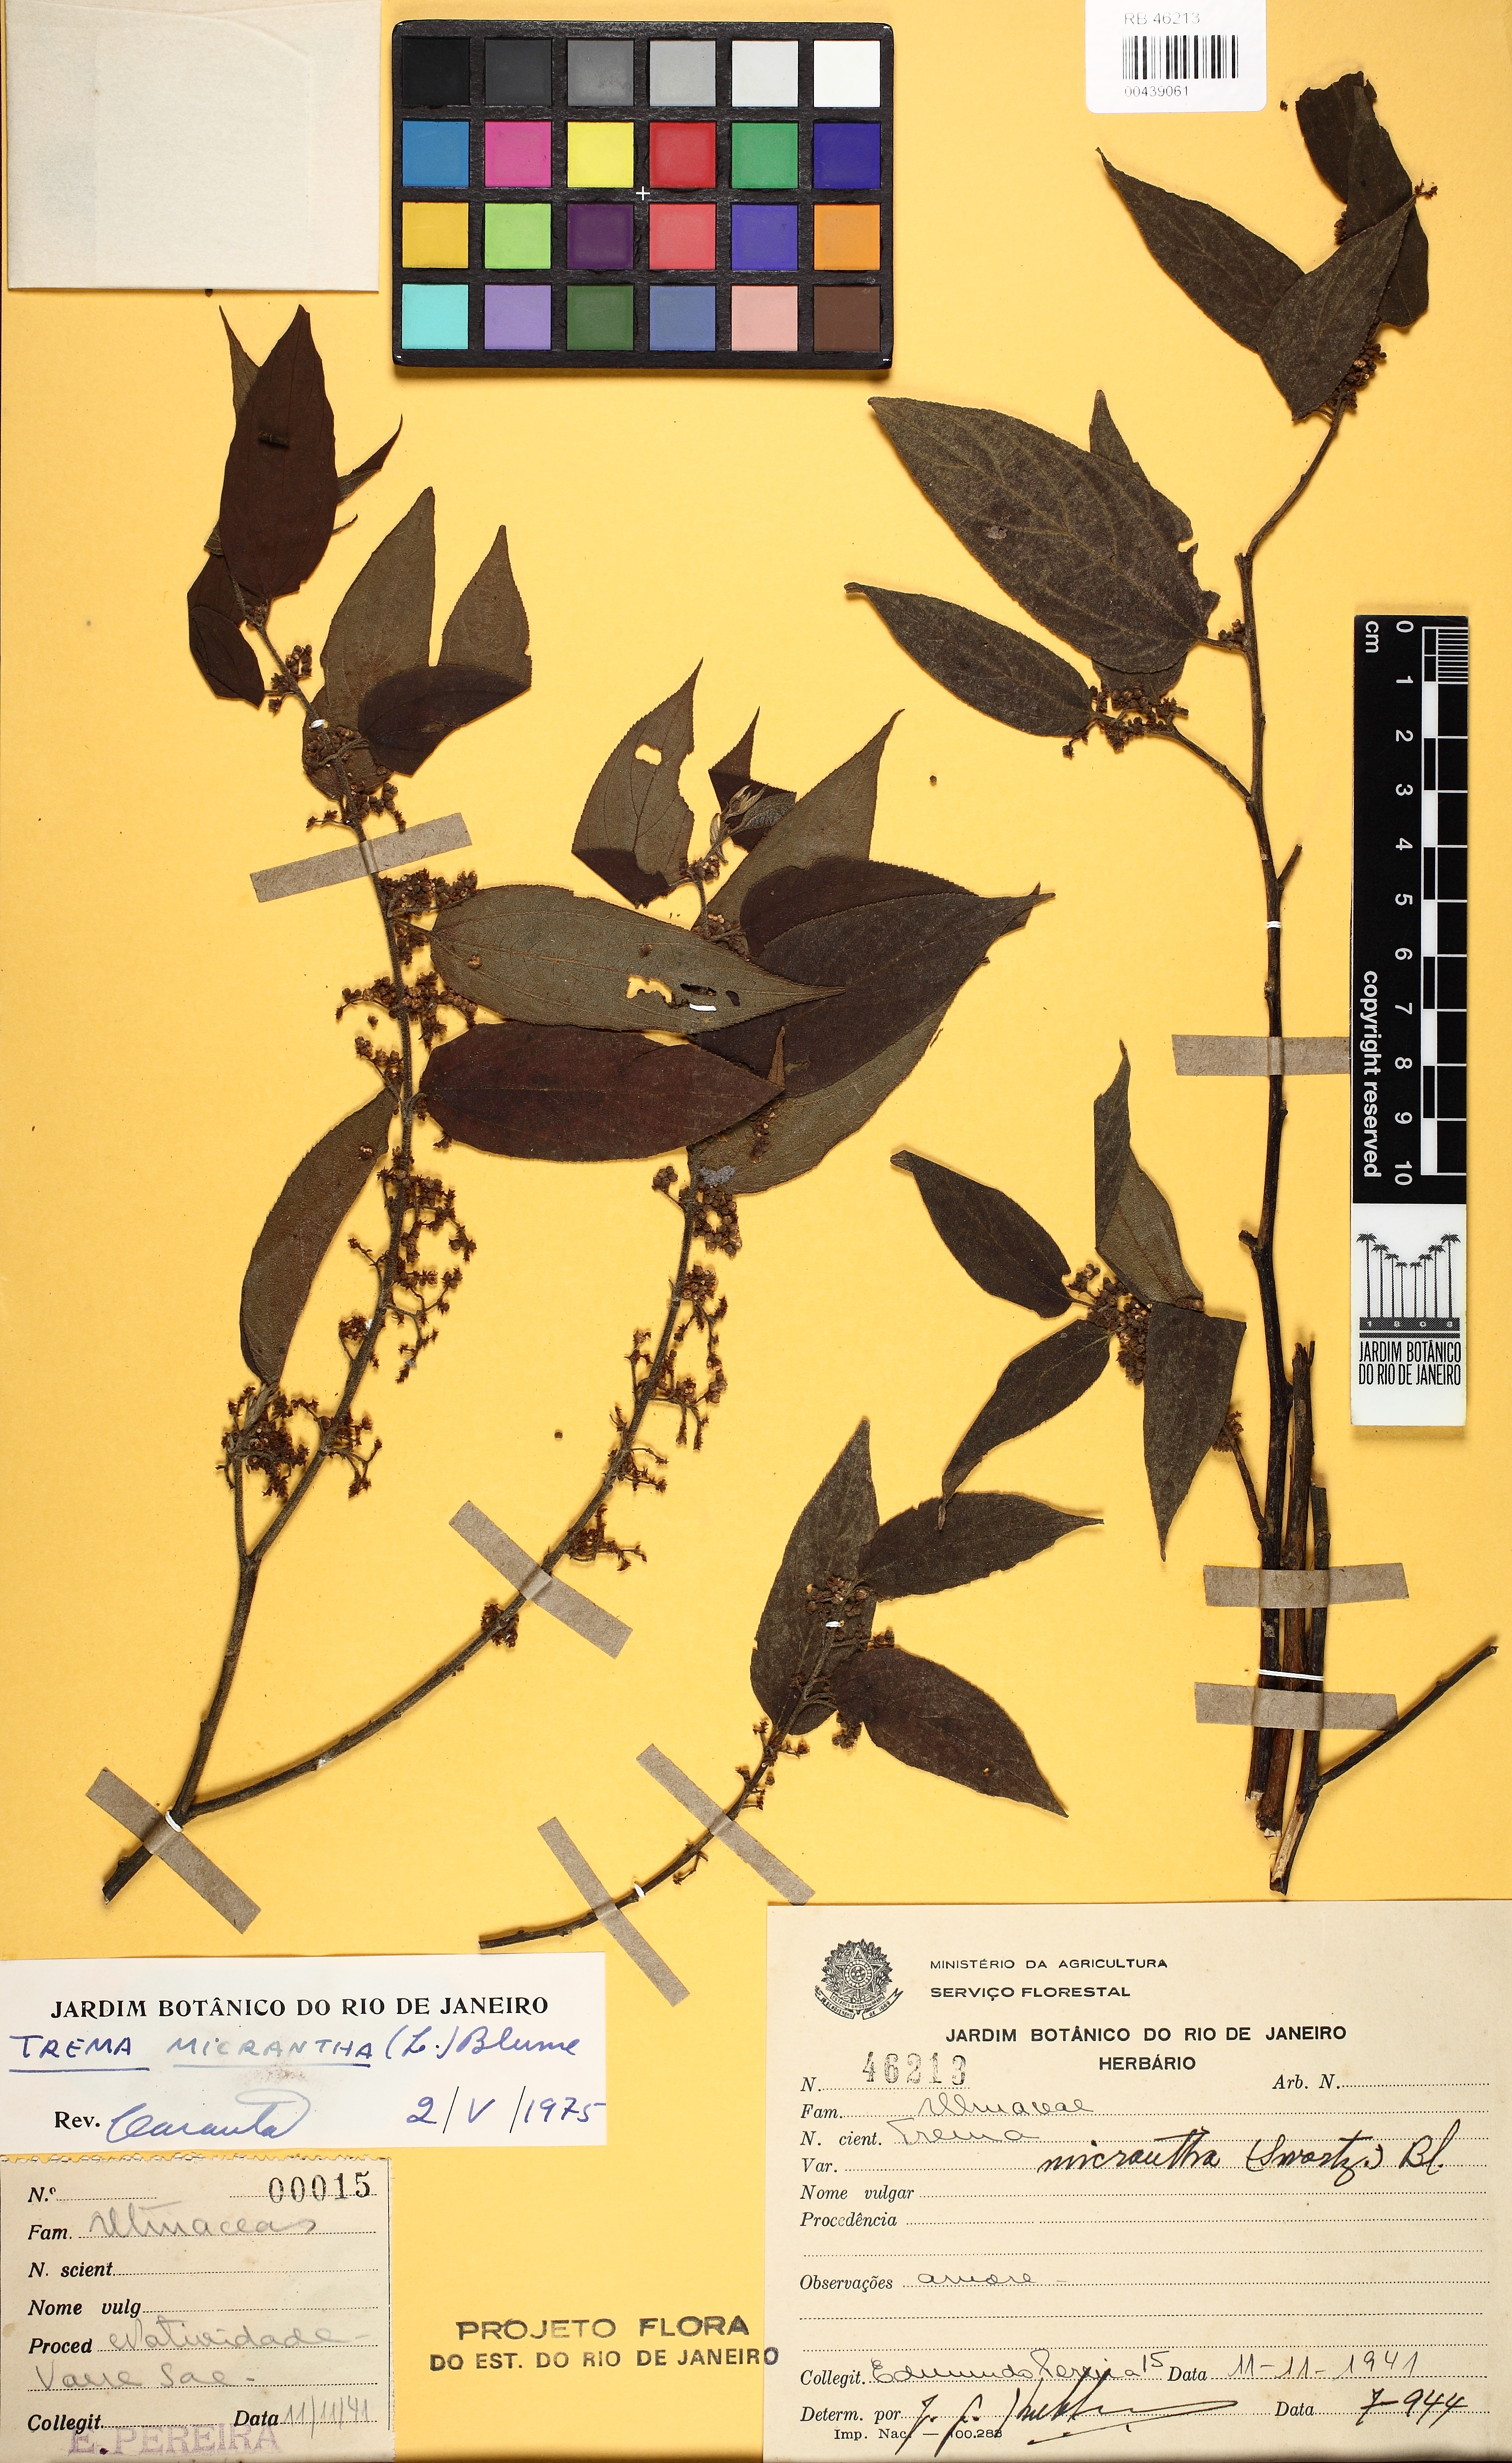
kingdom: Plantae
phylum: Tracheophyta
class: Magnoliopsida
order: Rosales
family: Cannabaceae
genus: Trema
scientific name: Trema micranthum
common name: Jamaican nettletree
